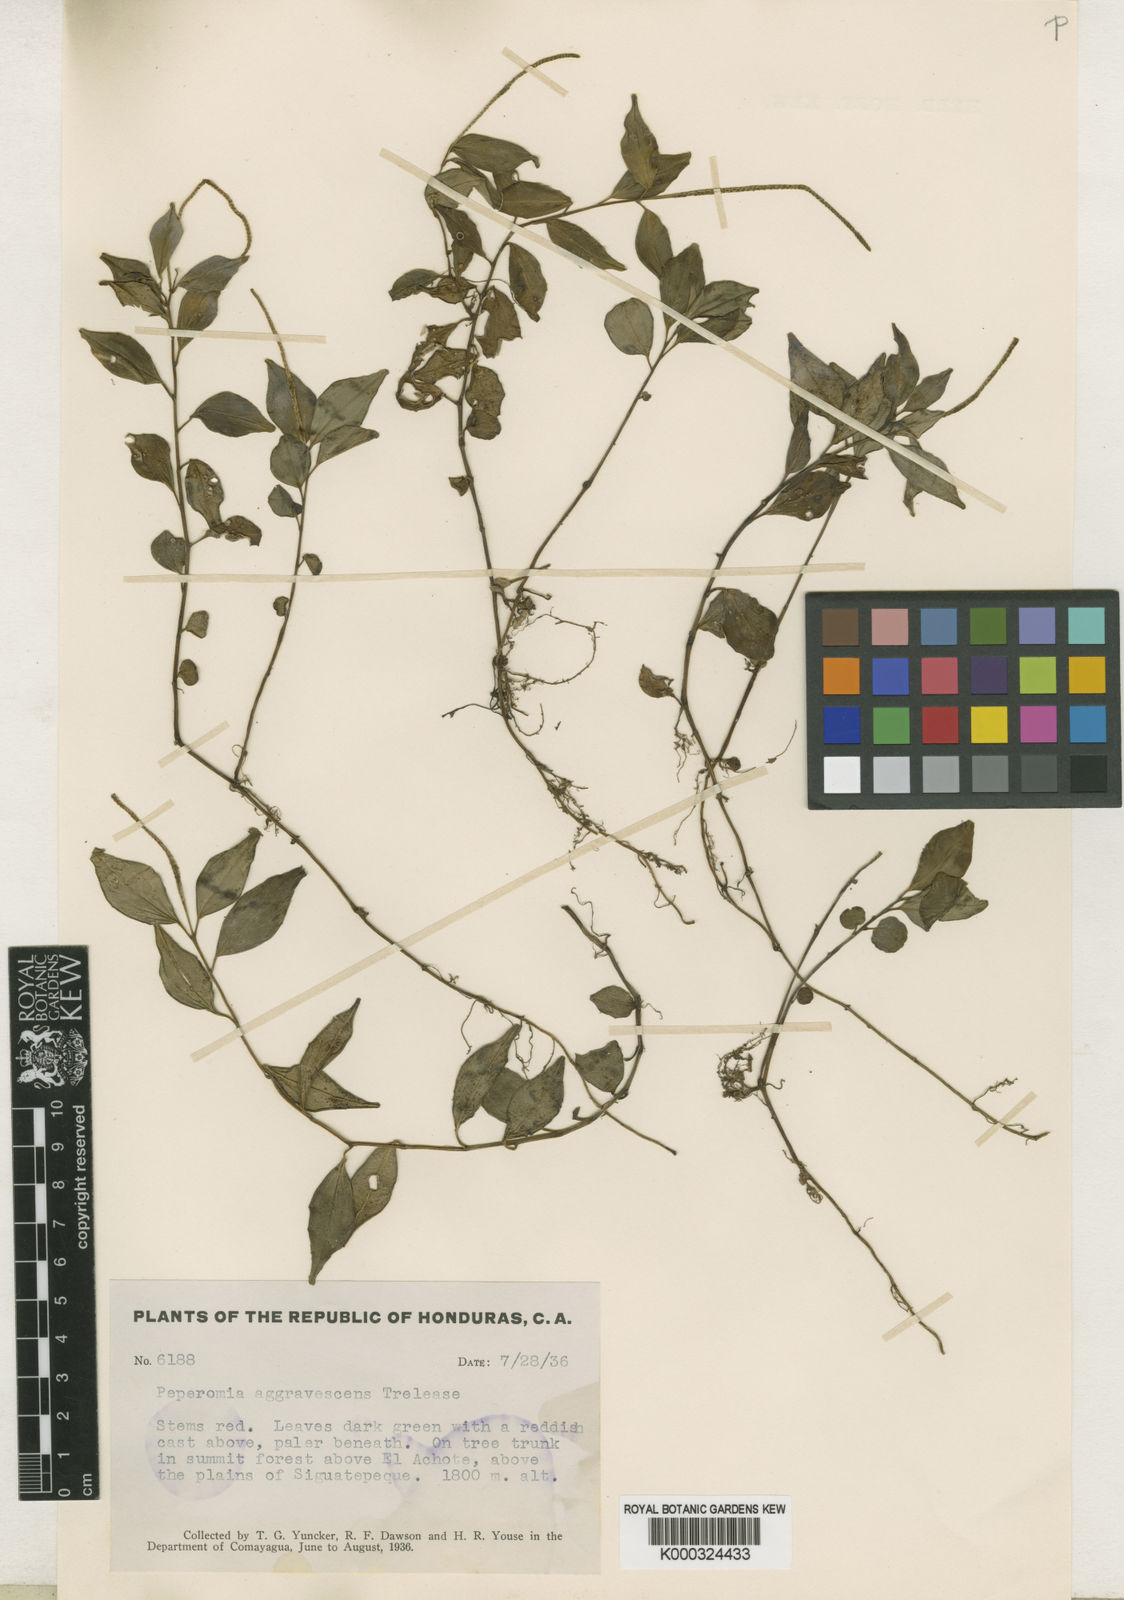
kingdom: Plantae
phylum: Tracheophyta
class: Magnoliopsida
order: Piperales
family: Piperaceae
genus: Peperomia
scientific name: Peperomia heterophylla
